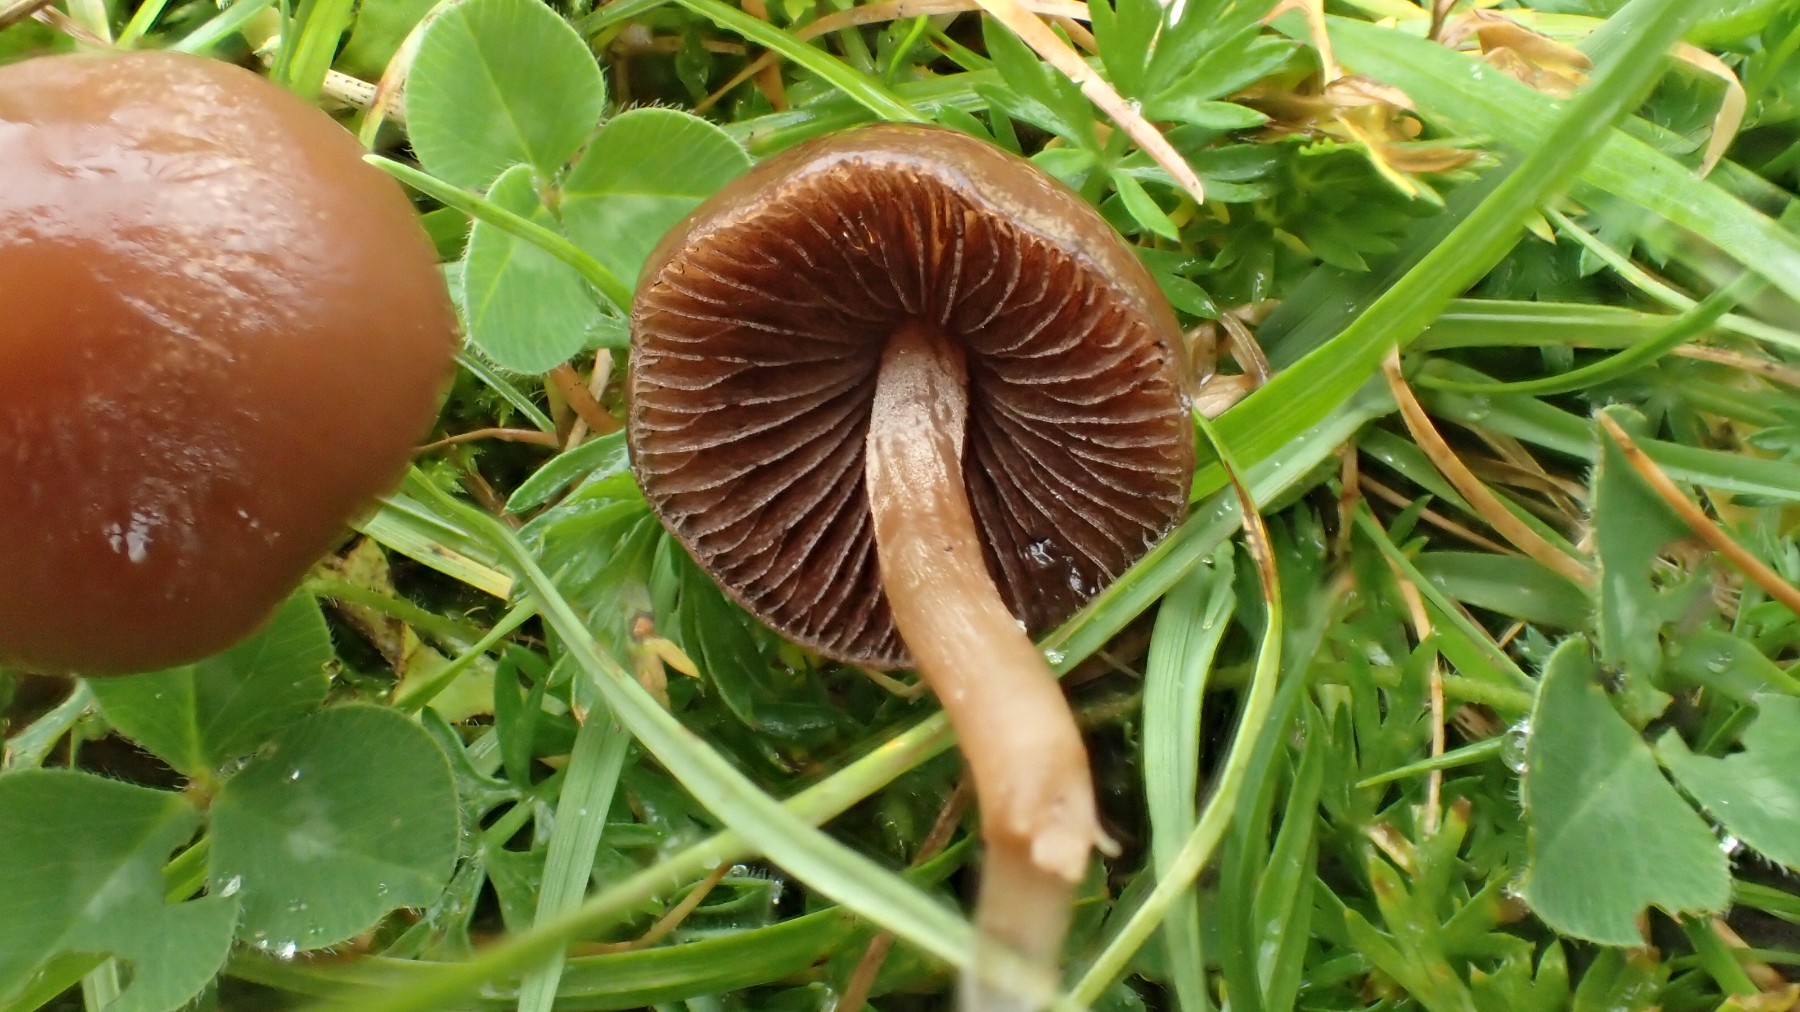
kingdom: Fungi
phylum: Basidiomycota
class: Agaricomycetes
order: Agaricales
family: Bolbitiaceae
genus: Panaeolina
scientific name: Panaeolina foenisecii
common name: høslætsvamp
